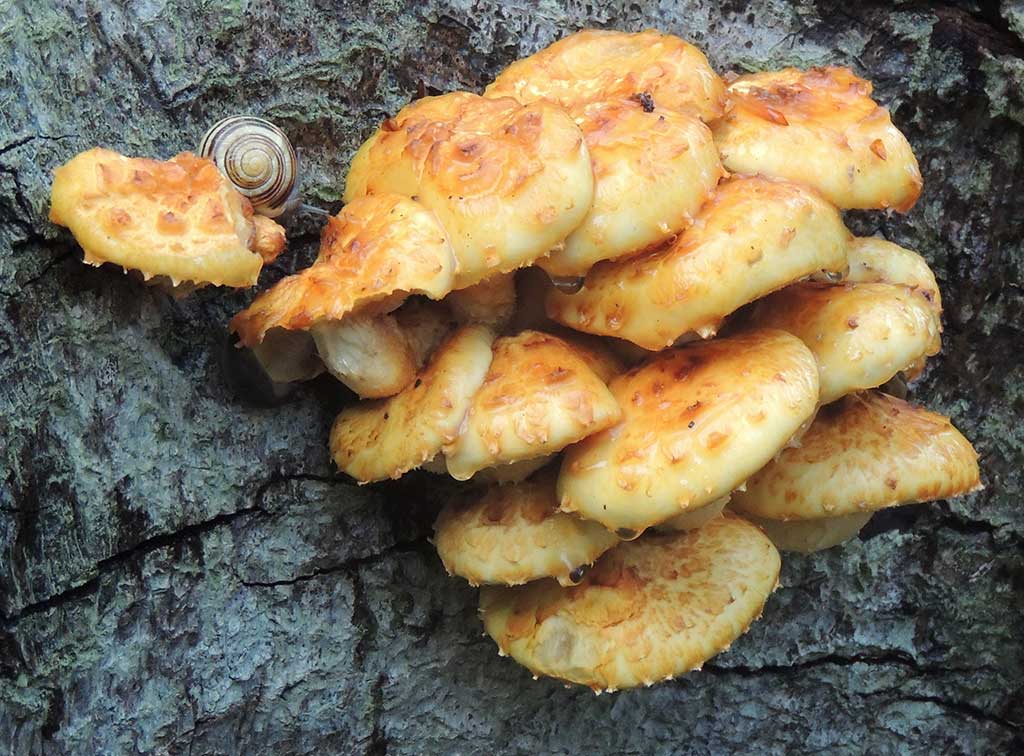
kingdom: Fungi
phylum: Basidiomycota
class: Agaricomycetes
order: Agaricales
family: Strophariaceae
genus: Pholiota
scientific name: Pholiota adiposa
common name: højtsiddende skælhat
